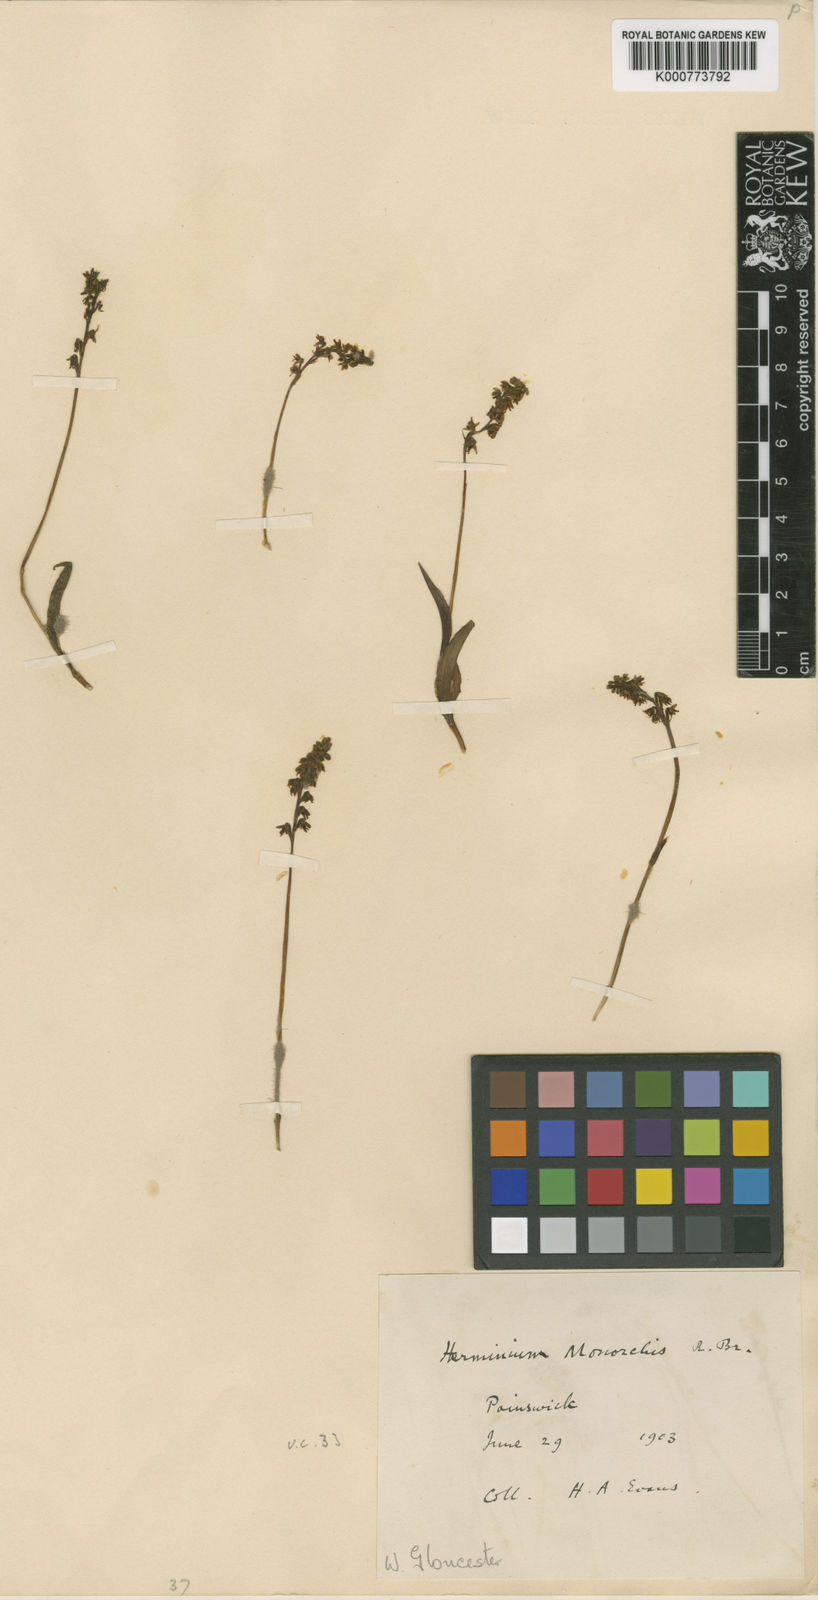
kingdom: Plantae
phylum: Tracheophyta
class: Liliopsida
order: Asparagales
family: Orchidaceae
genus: Herminium
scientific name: Herminium monorchis
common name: Musk orchid
